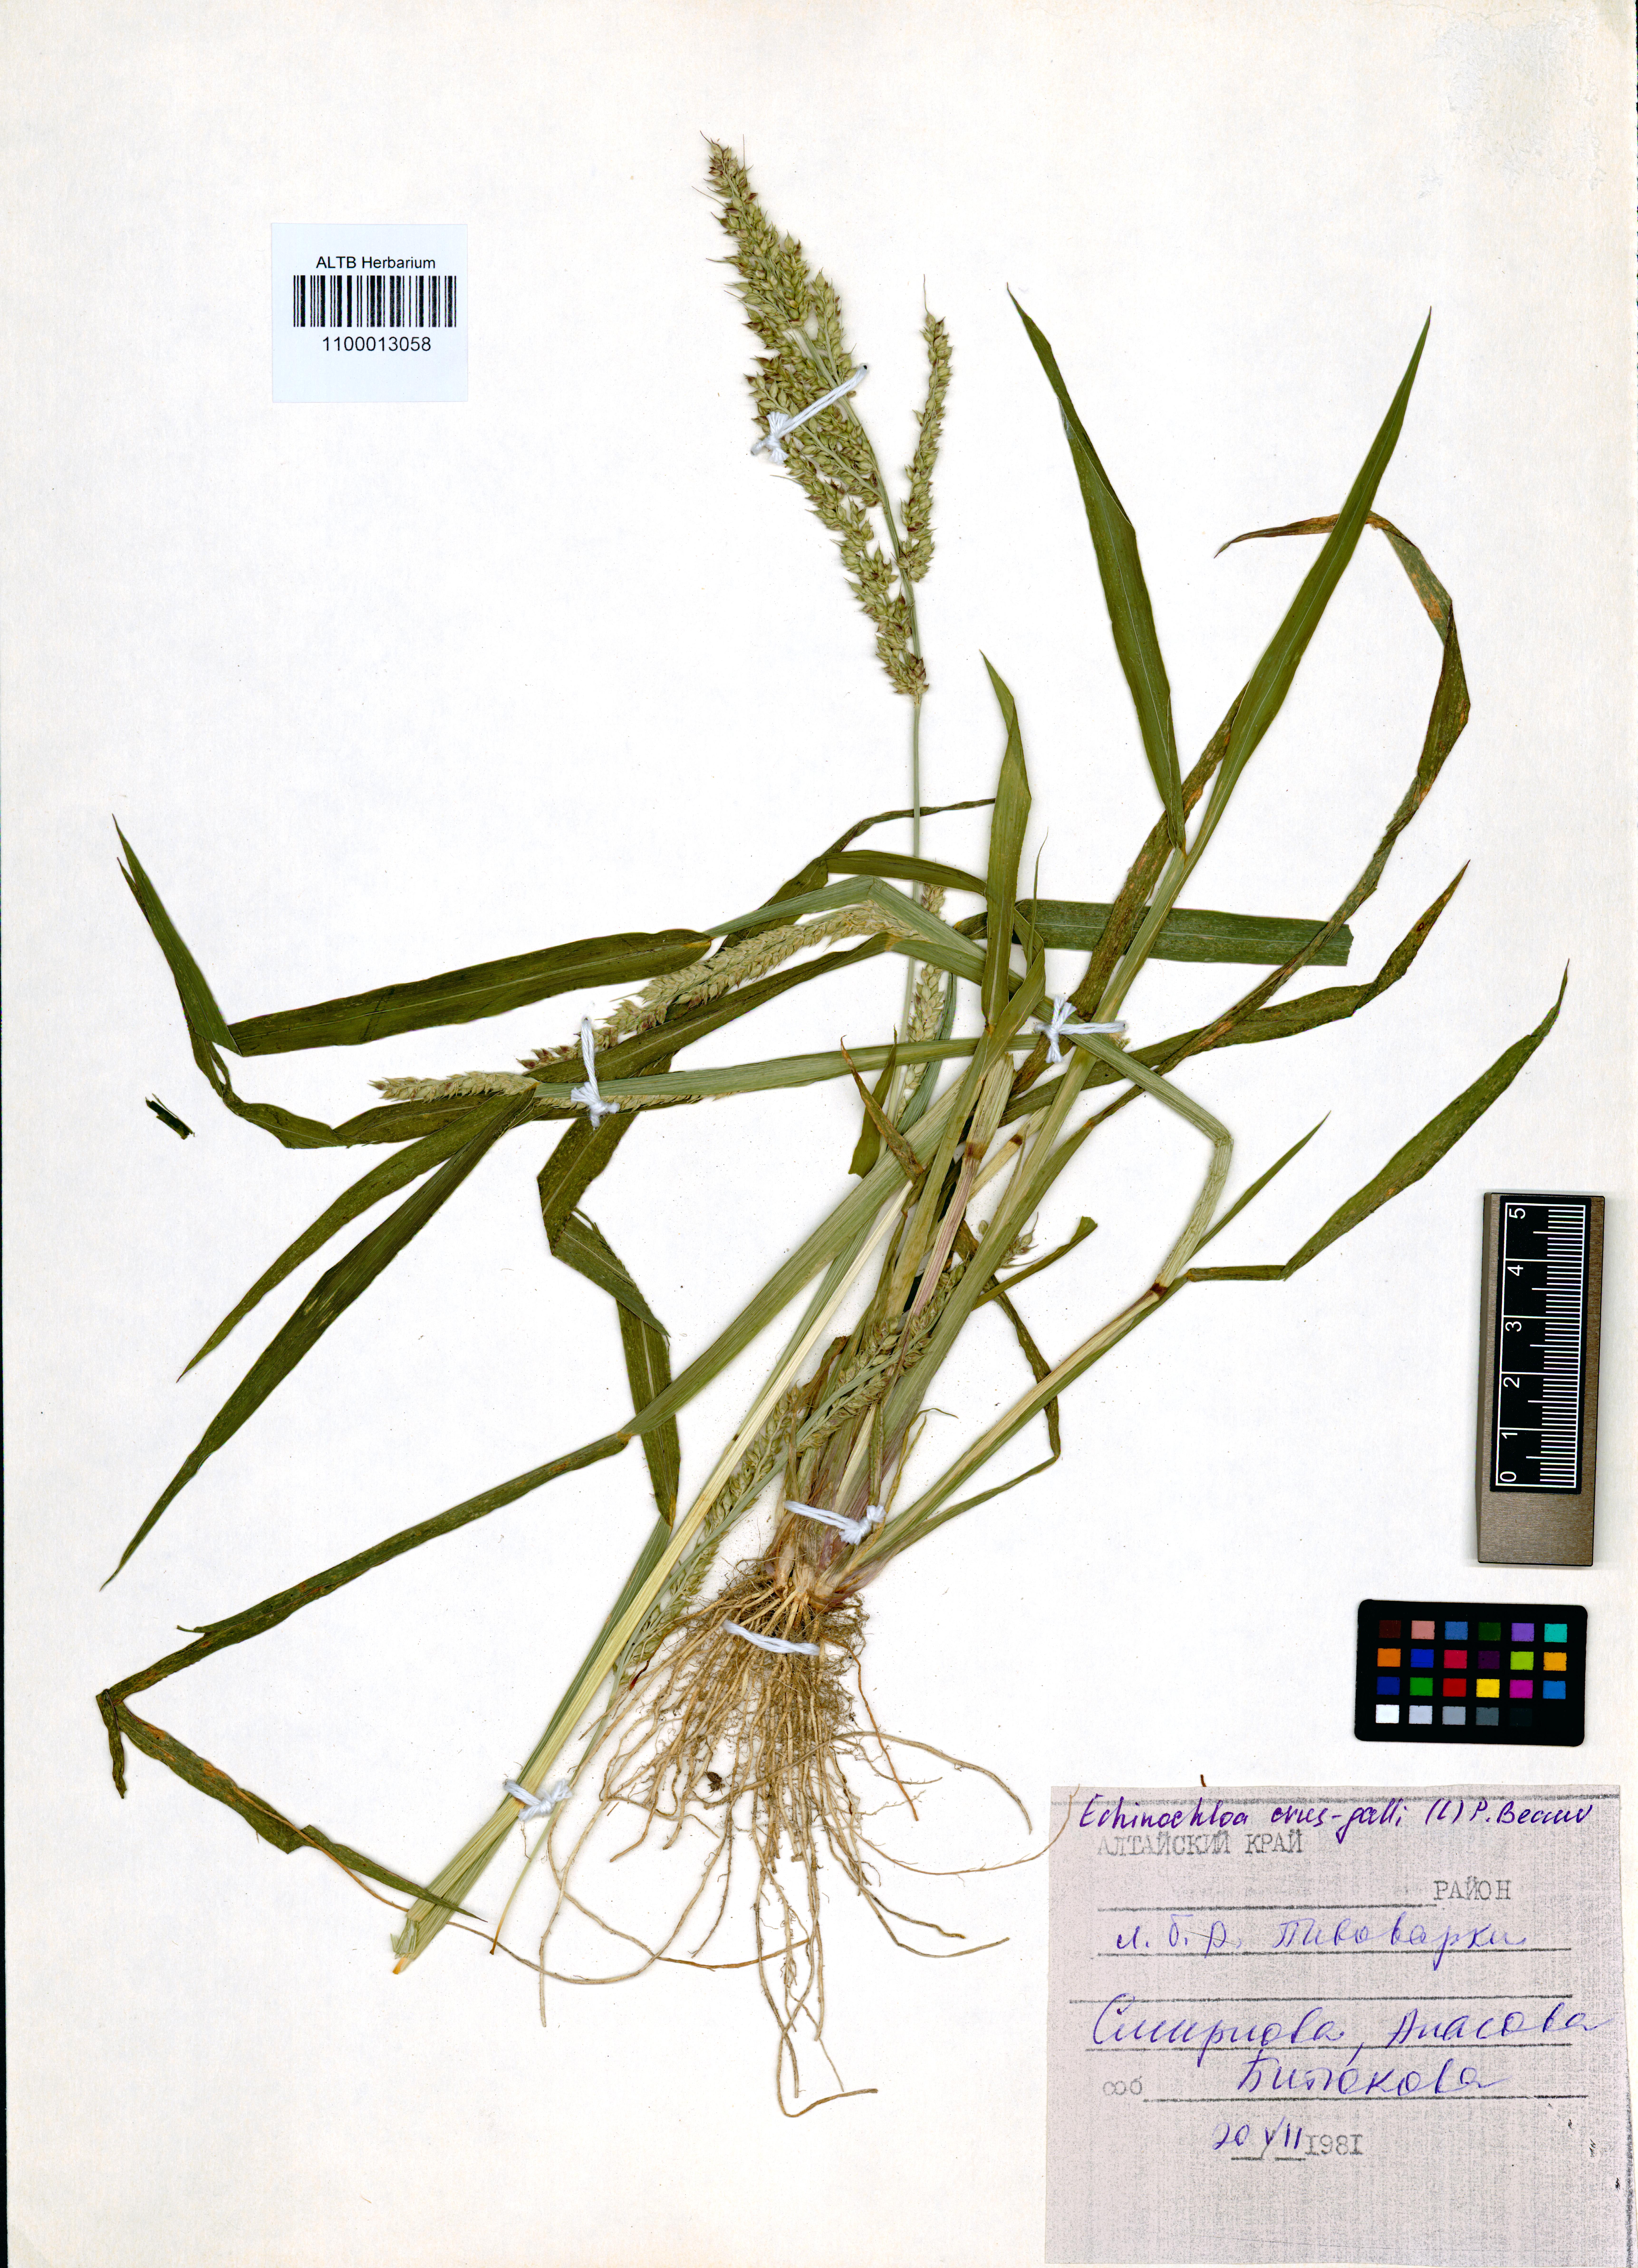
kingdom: Plantae
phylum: Tracheophyta
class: Liliopsida
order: Poales
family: Poaceae
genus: Echinochloa
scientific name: Echinochloa crus-galli
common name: Cockspur
